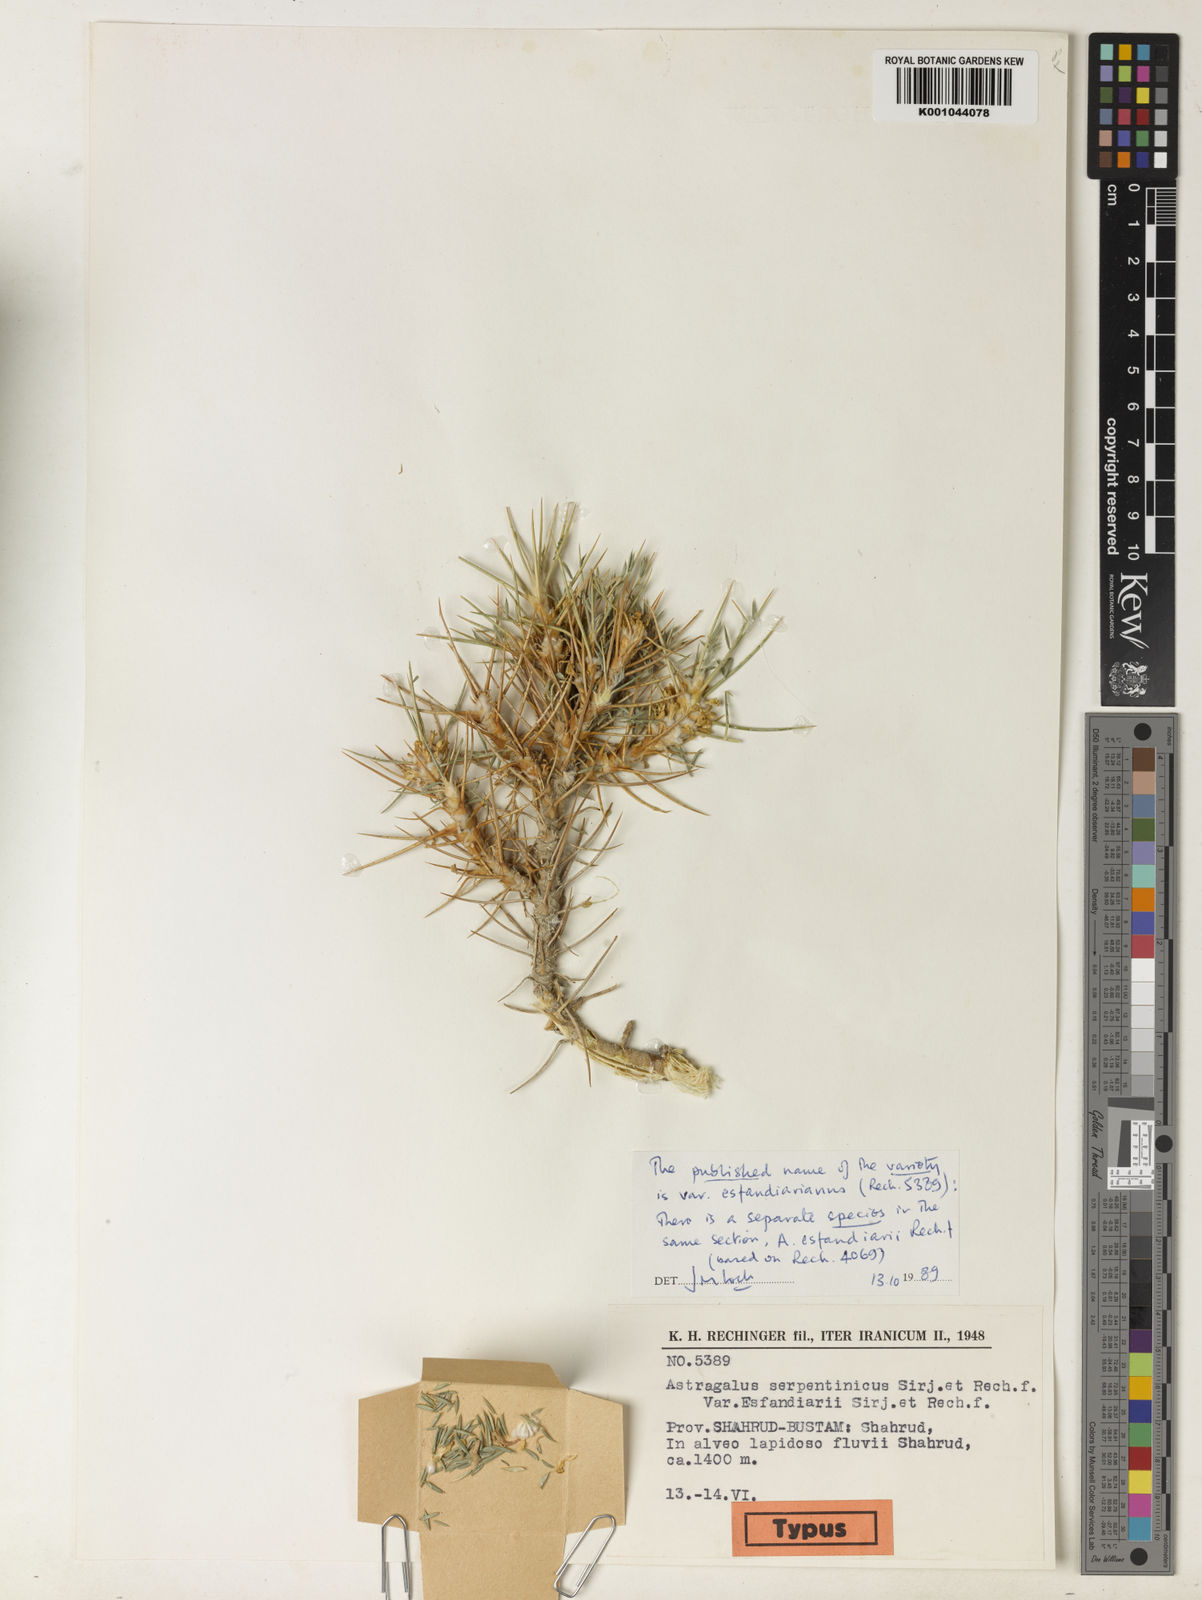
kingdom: Plantae
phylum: Tracheophyta
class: Magnoliopsida
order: Fabales
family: Fabaceae
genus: Astragalus
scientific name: Astragalus verus
